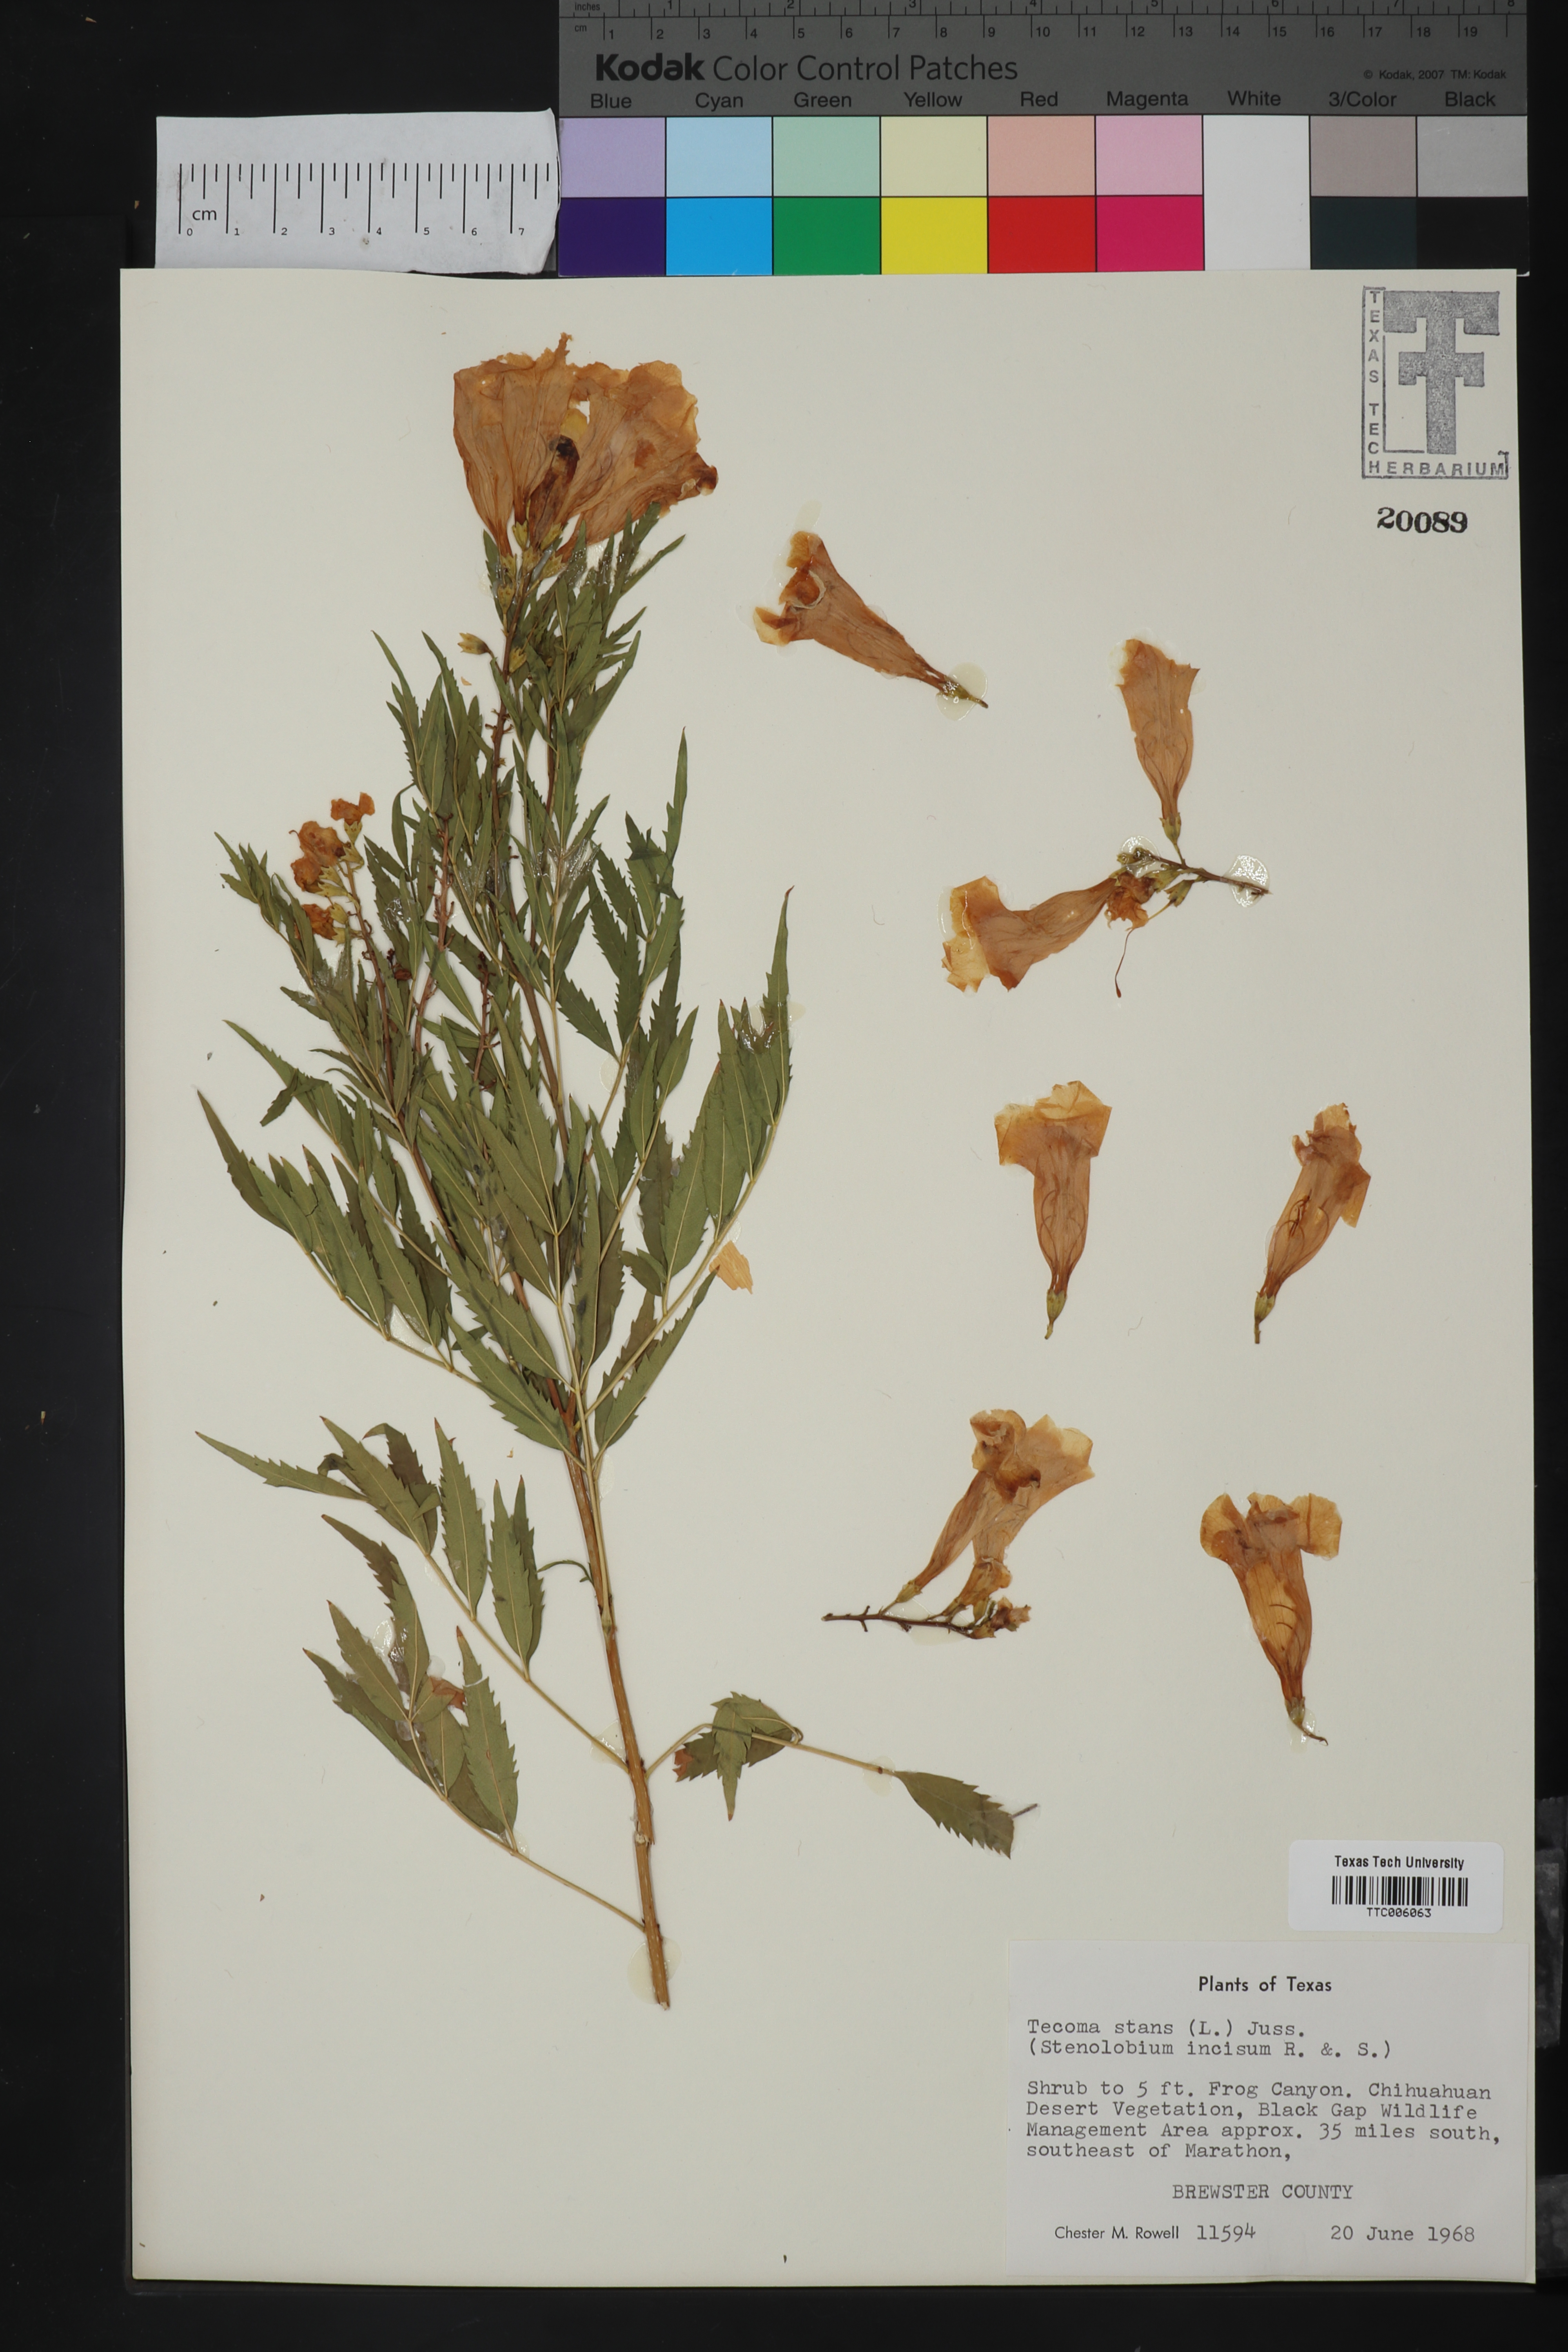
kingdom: Plantae
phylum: Tracheophyta
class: Magnoliopsida
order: Lamiales
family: Bignoniaceae
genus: Tecoma
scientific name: Tecoma stans
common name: Yellow trumpetbush
